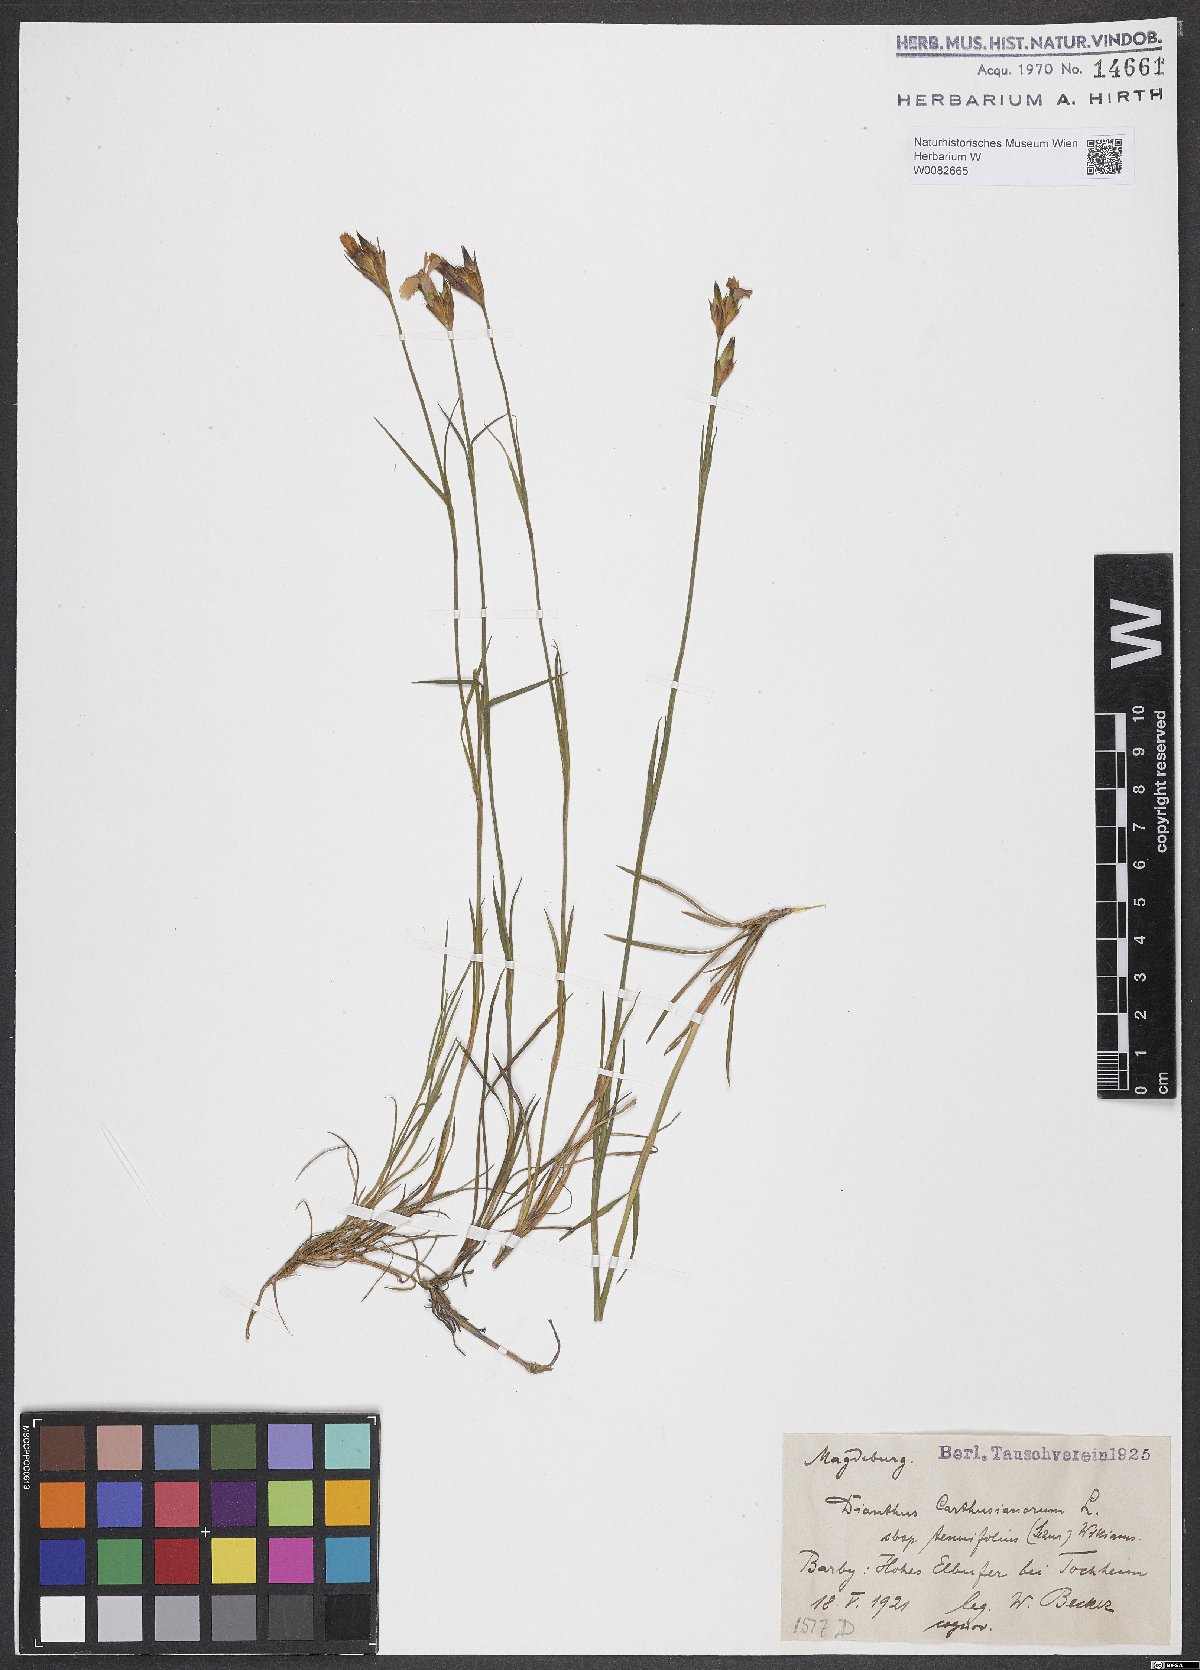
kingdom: Plantae
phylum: Tracheophyta
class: Magnoliopsida
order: Caryophyllales
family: Caryophyllaceae
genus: Dianthus
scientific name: Dianthus carthusianorum
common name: Carthusian pink
